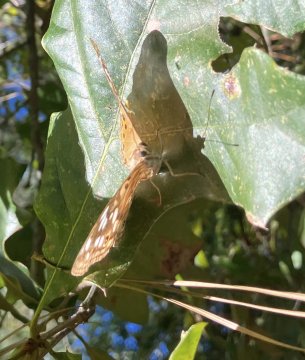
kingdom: Animalia
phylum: Arthropoda
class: Insecta
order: Lepidoptera
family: Nymphalidae
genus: Asterocampa
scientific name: Asterocampa celtis
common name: Hackberry Emperor
